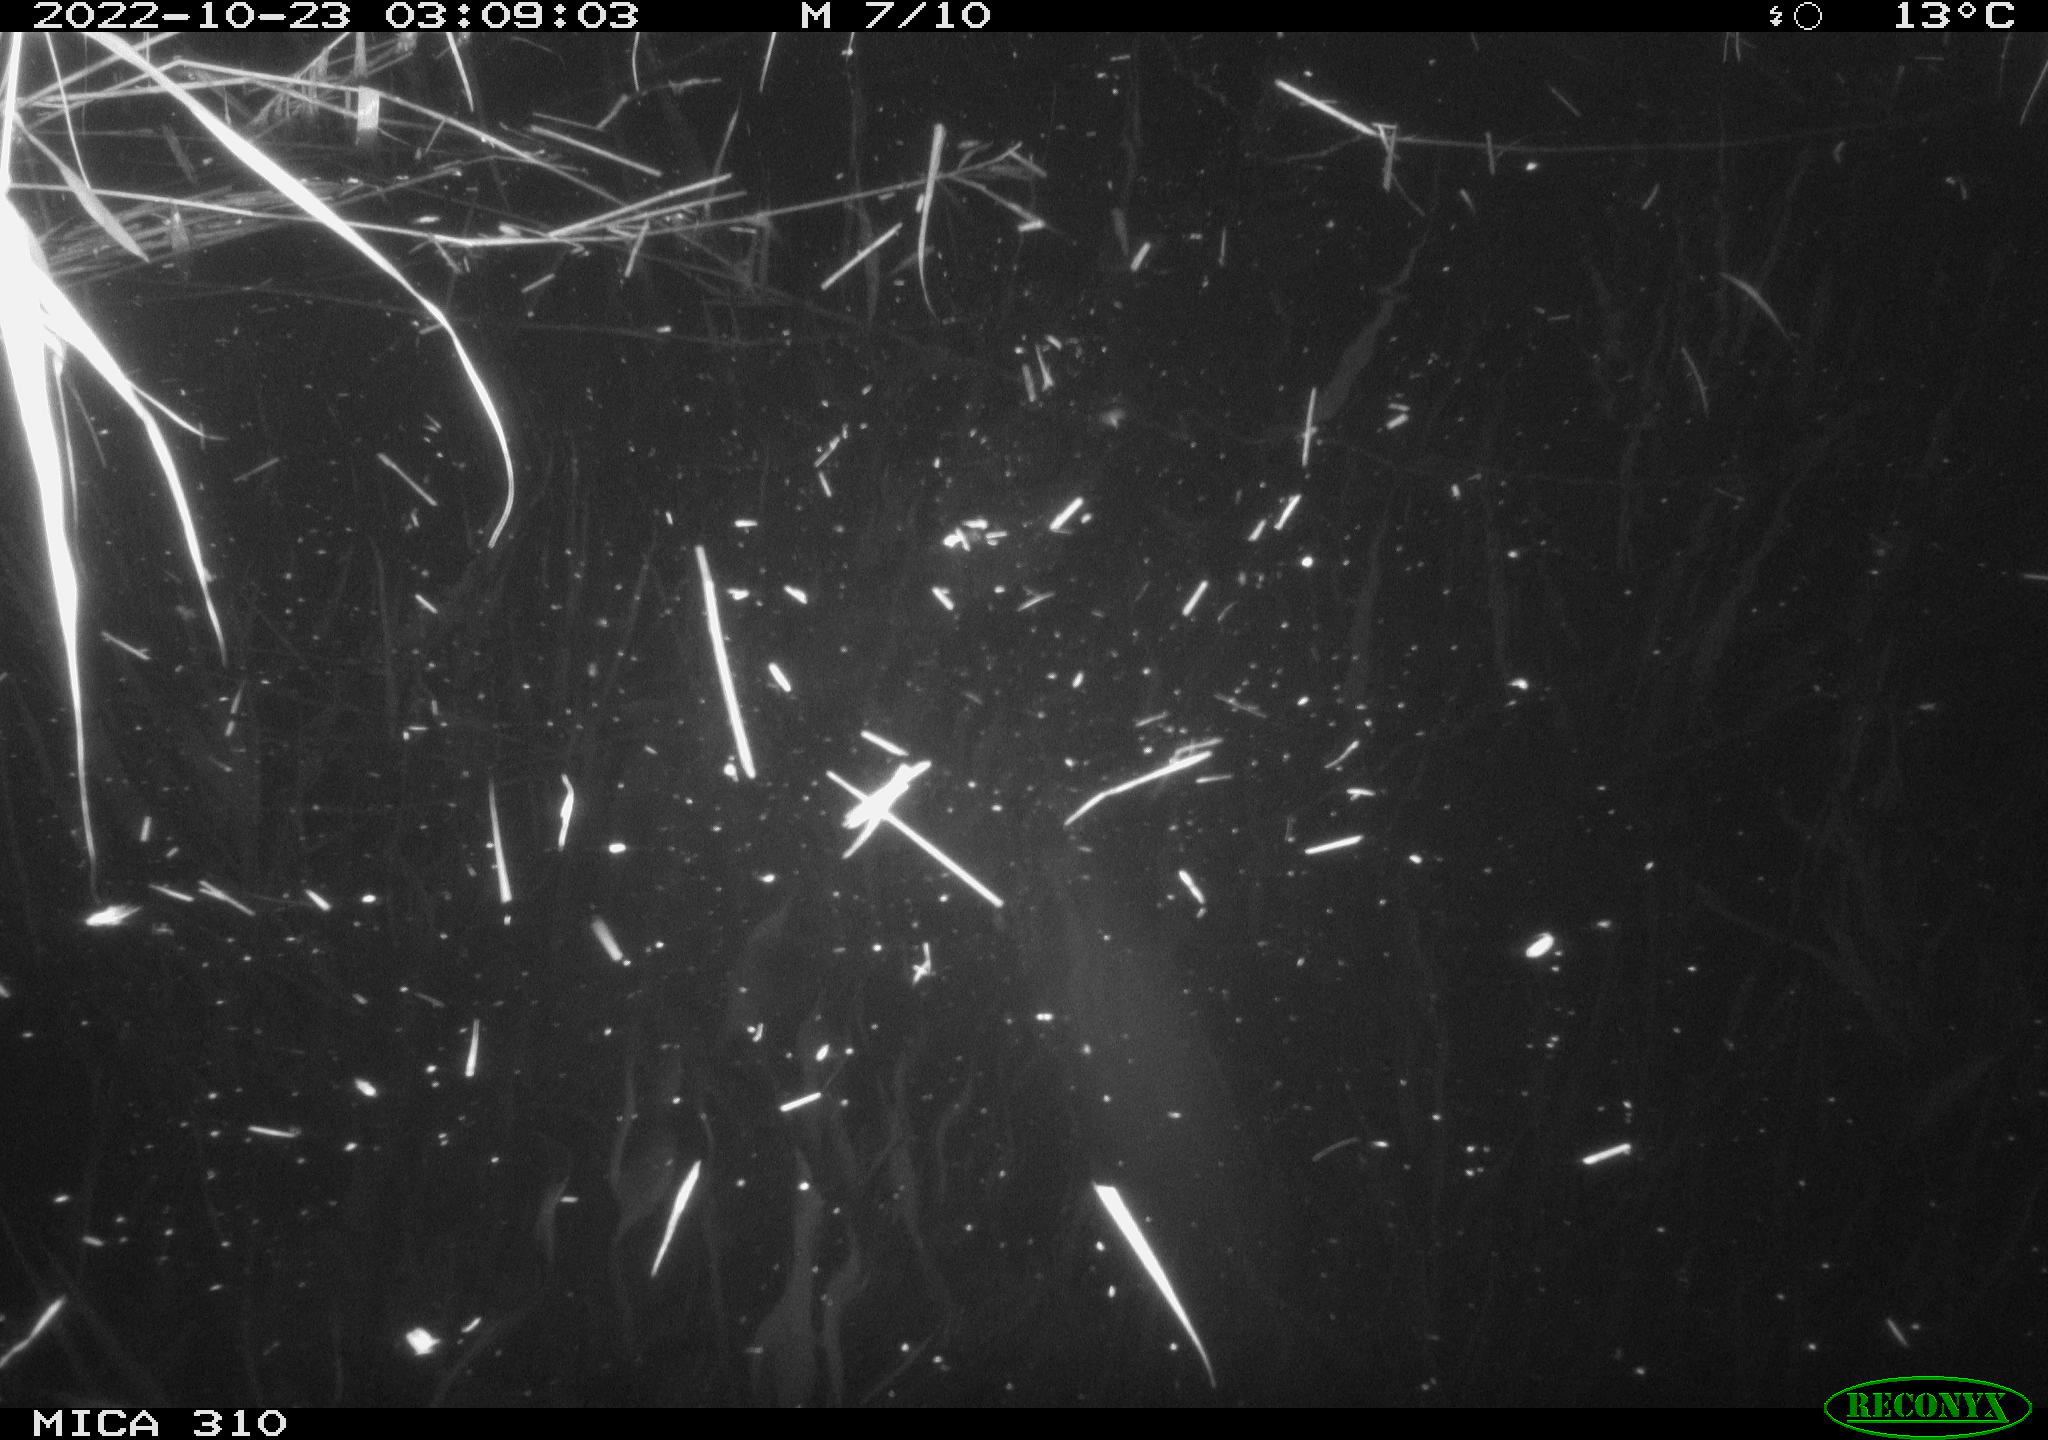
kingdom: Animalia
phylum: Chordata
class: Mammalia
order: Rodentia
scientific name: Rodentia
